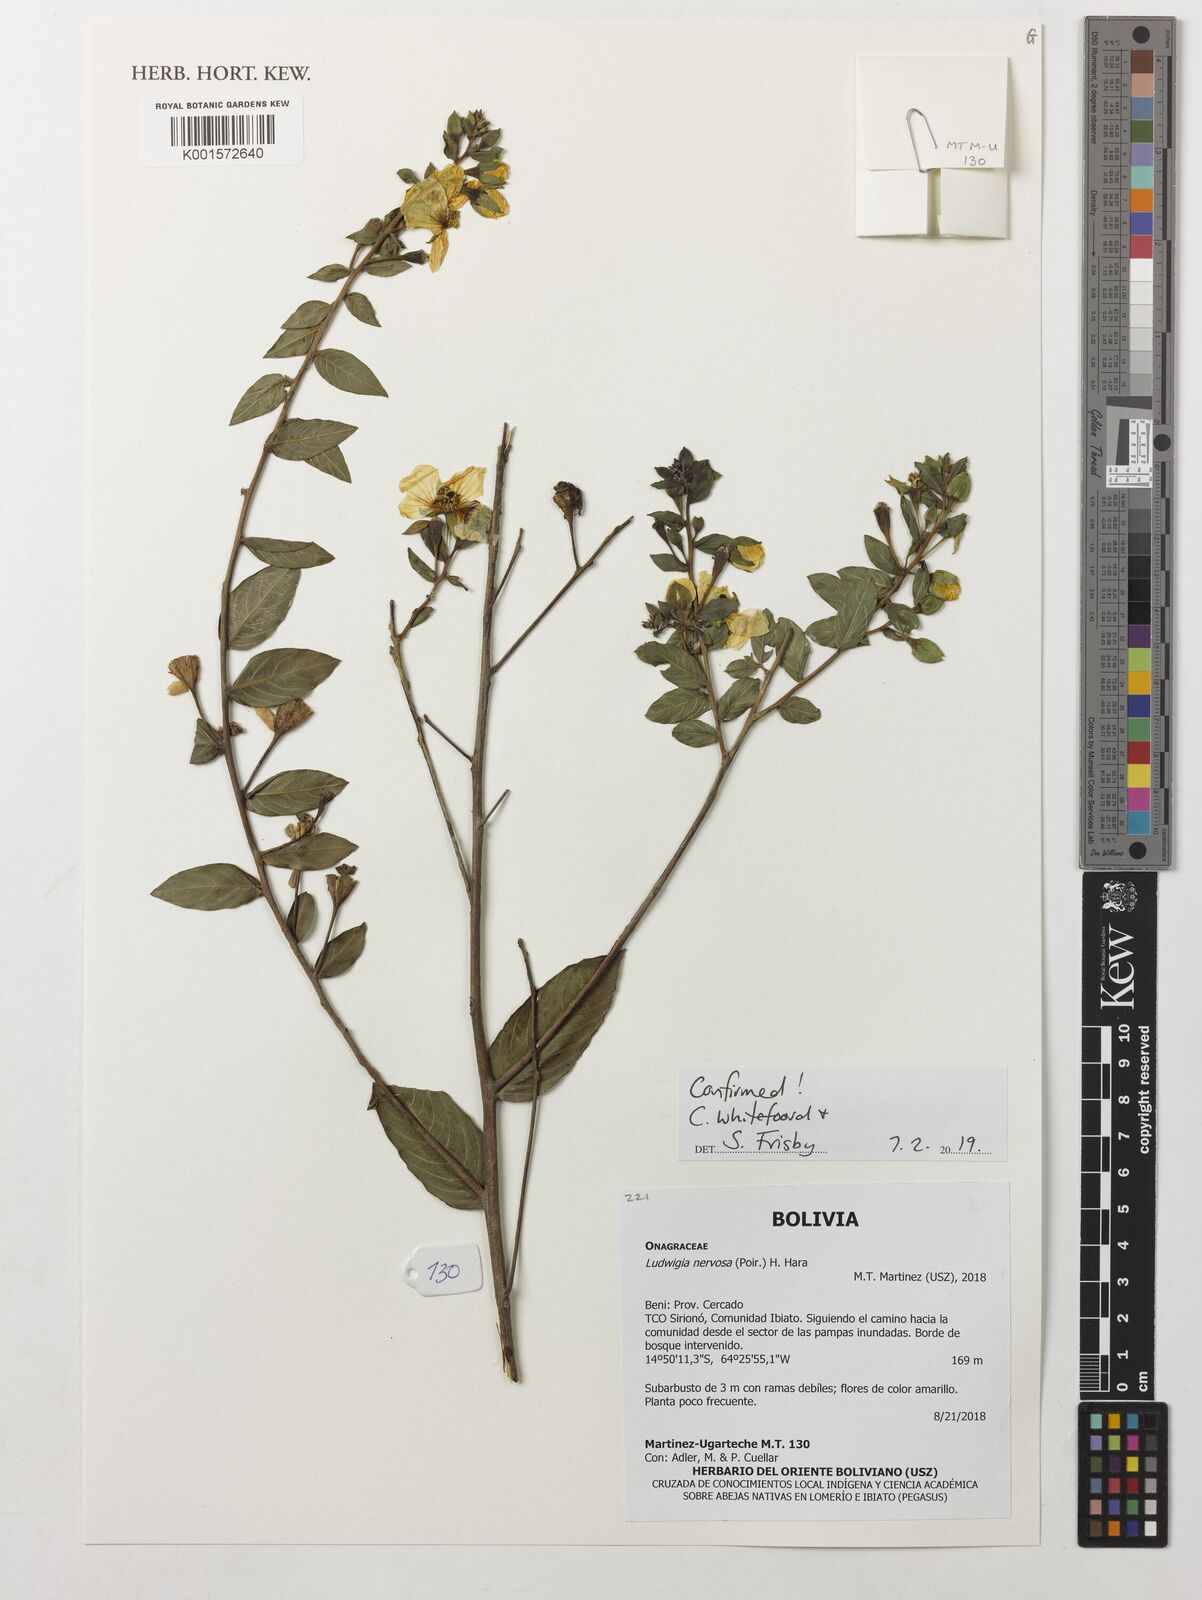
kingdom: Plantae
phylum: Tracheophyta
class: Magnoliopsida
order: Myrtales
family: Onagraceae
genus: Ludwigia
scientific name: Ludwigia nervosa
